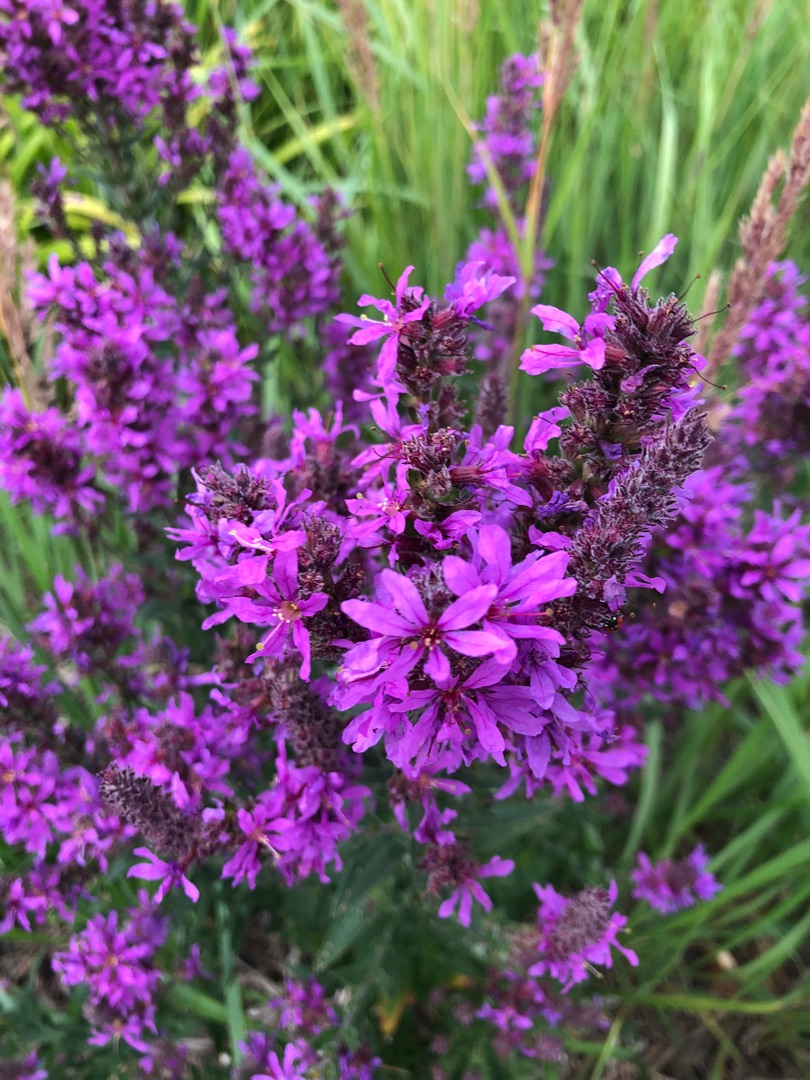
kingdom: Plantae
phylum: Tracheophyta
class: Magnoliopsida
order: Myrtales
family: Lythraceae
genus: Lythrum
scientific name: Lythrum salicaria
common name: Kattehale
